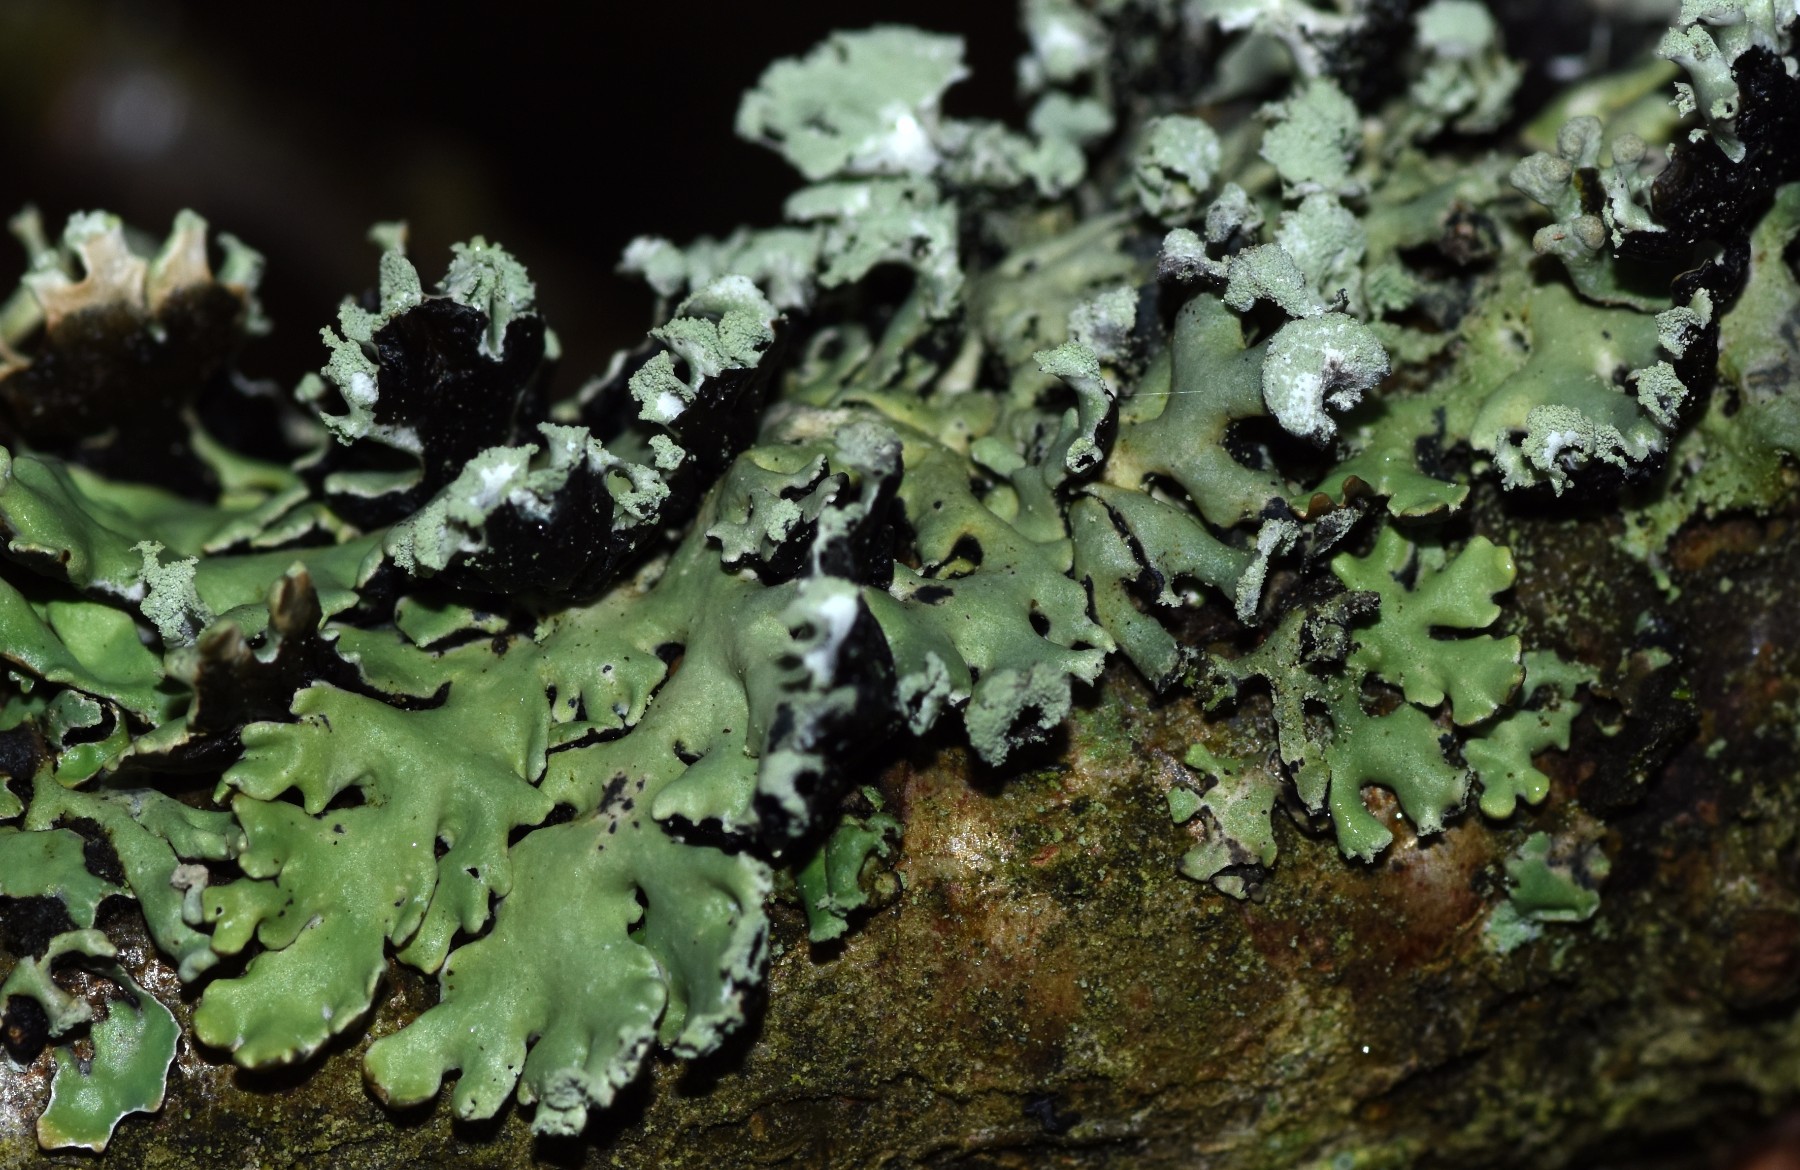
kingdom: Fungi
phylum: Ascomycota
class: Lecanoromycetes
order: Lecanorales
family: Parmeliaceae
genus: Hypogymnia
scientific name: Hypogymnia physodes
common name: almindelig kvistlav
